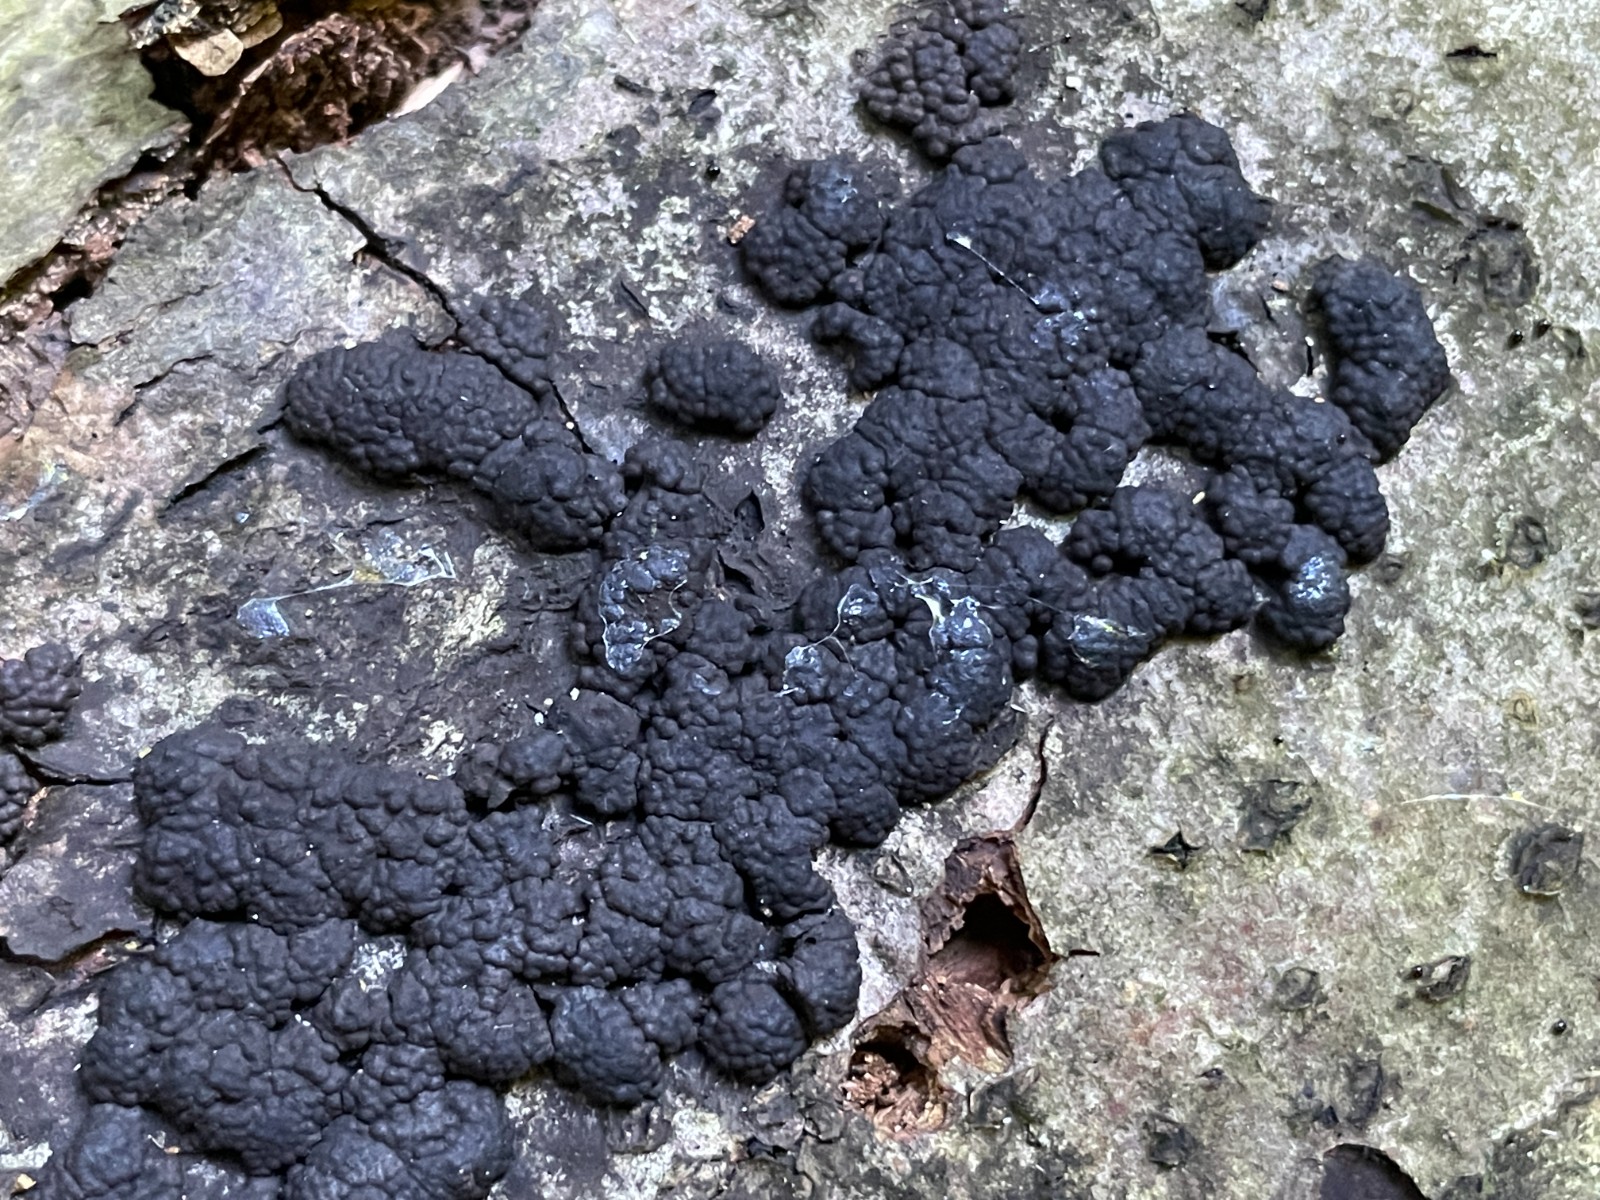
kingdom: Fungi
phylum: Ascomycota
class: Sordariomycetes
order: Xylariales
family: Hypoxylaceae
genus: Jackrogersella
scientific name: Jackrogersella cohaerens
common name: sammenflydende kulbær
